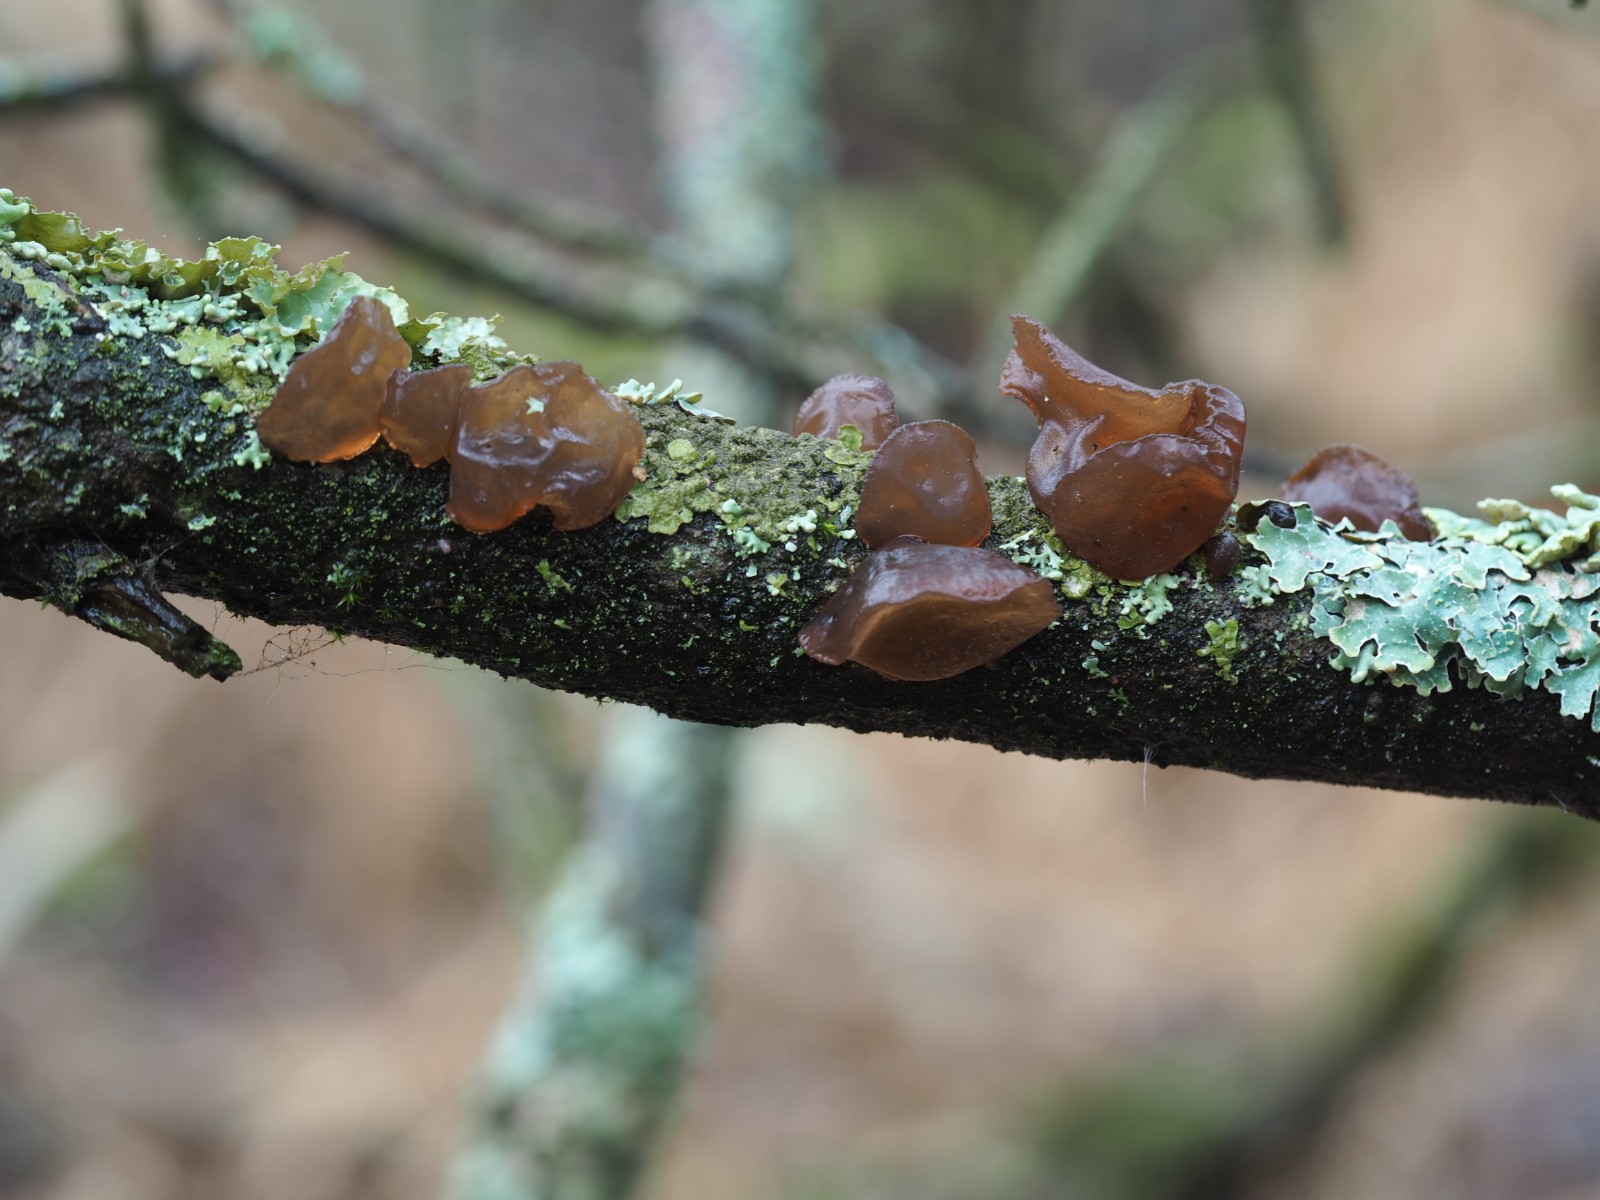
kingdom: Fungi
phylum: Basidiomycota
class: Agaricomycetes
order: Auriculariales
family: Auriculariaceae
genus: Exidia
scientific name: Exidia recisa
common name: pile-bævretop
